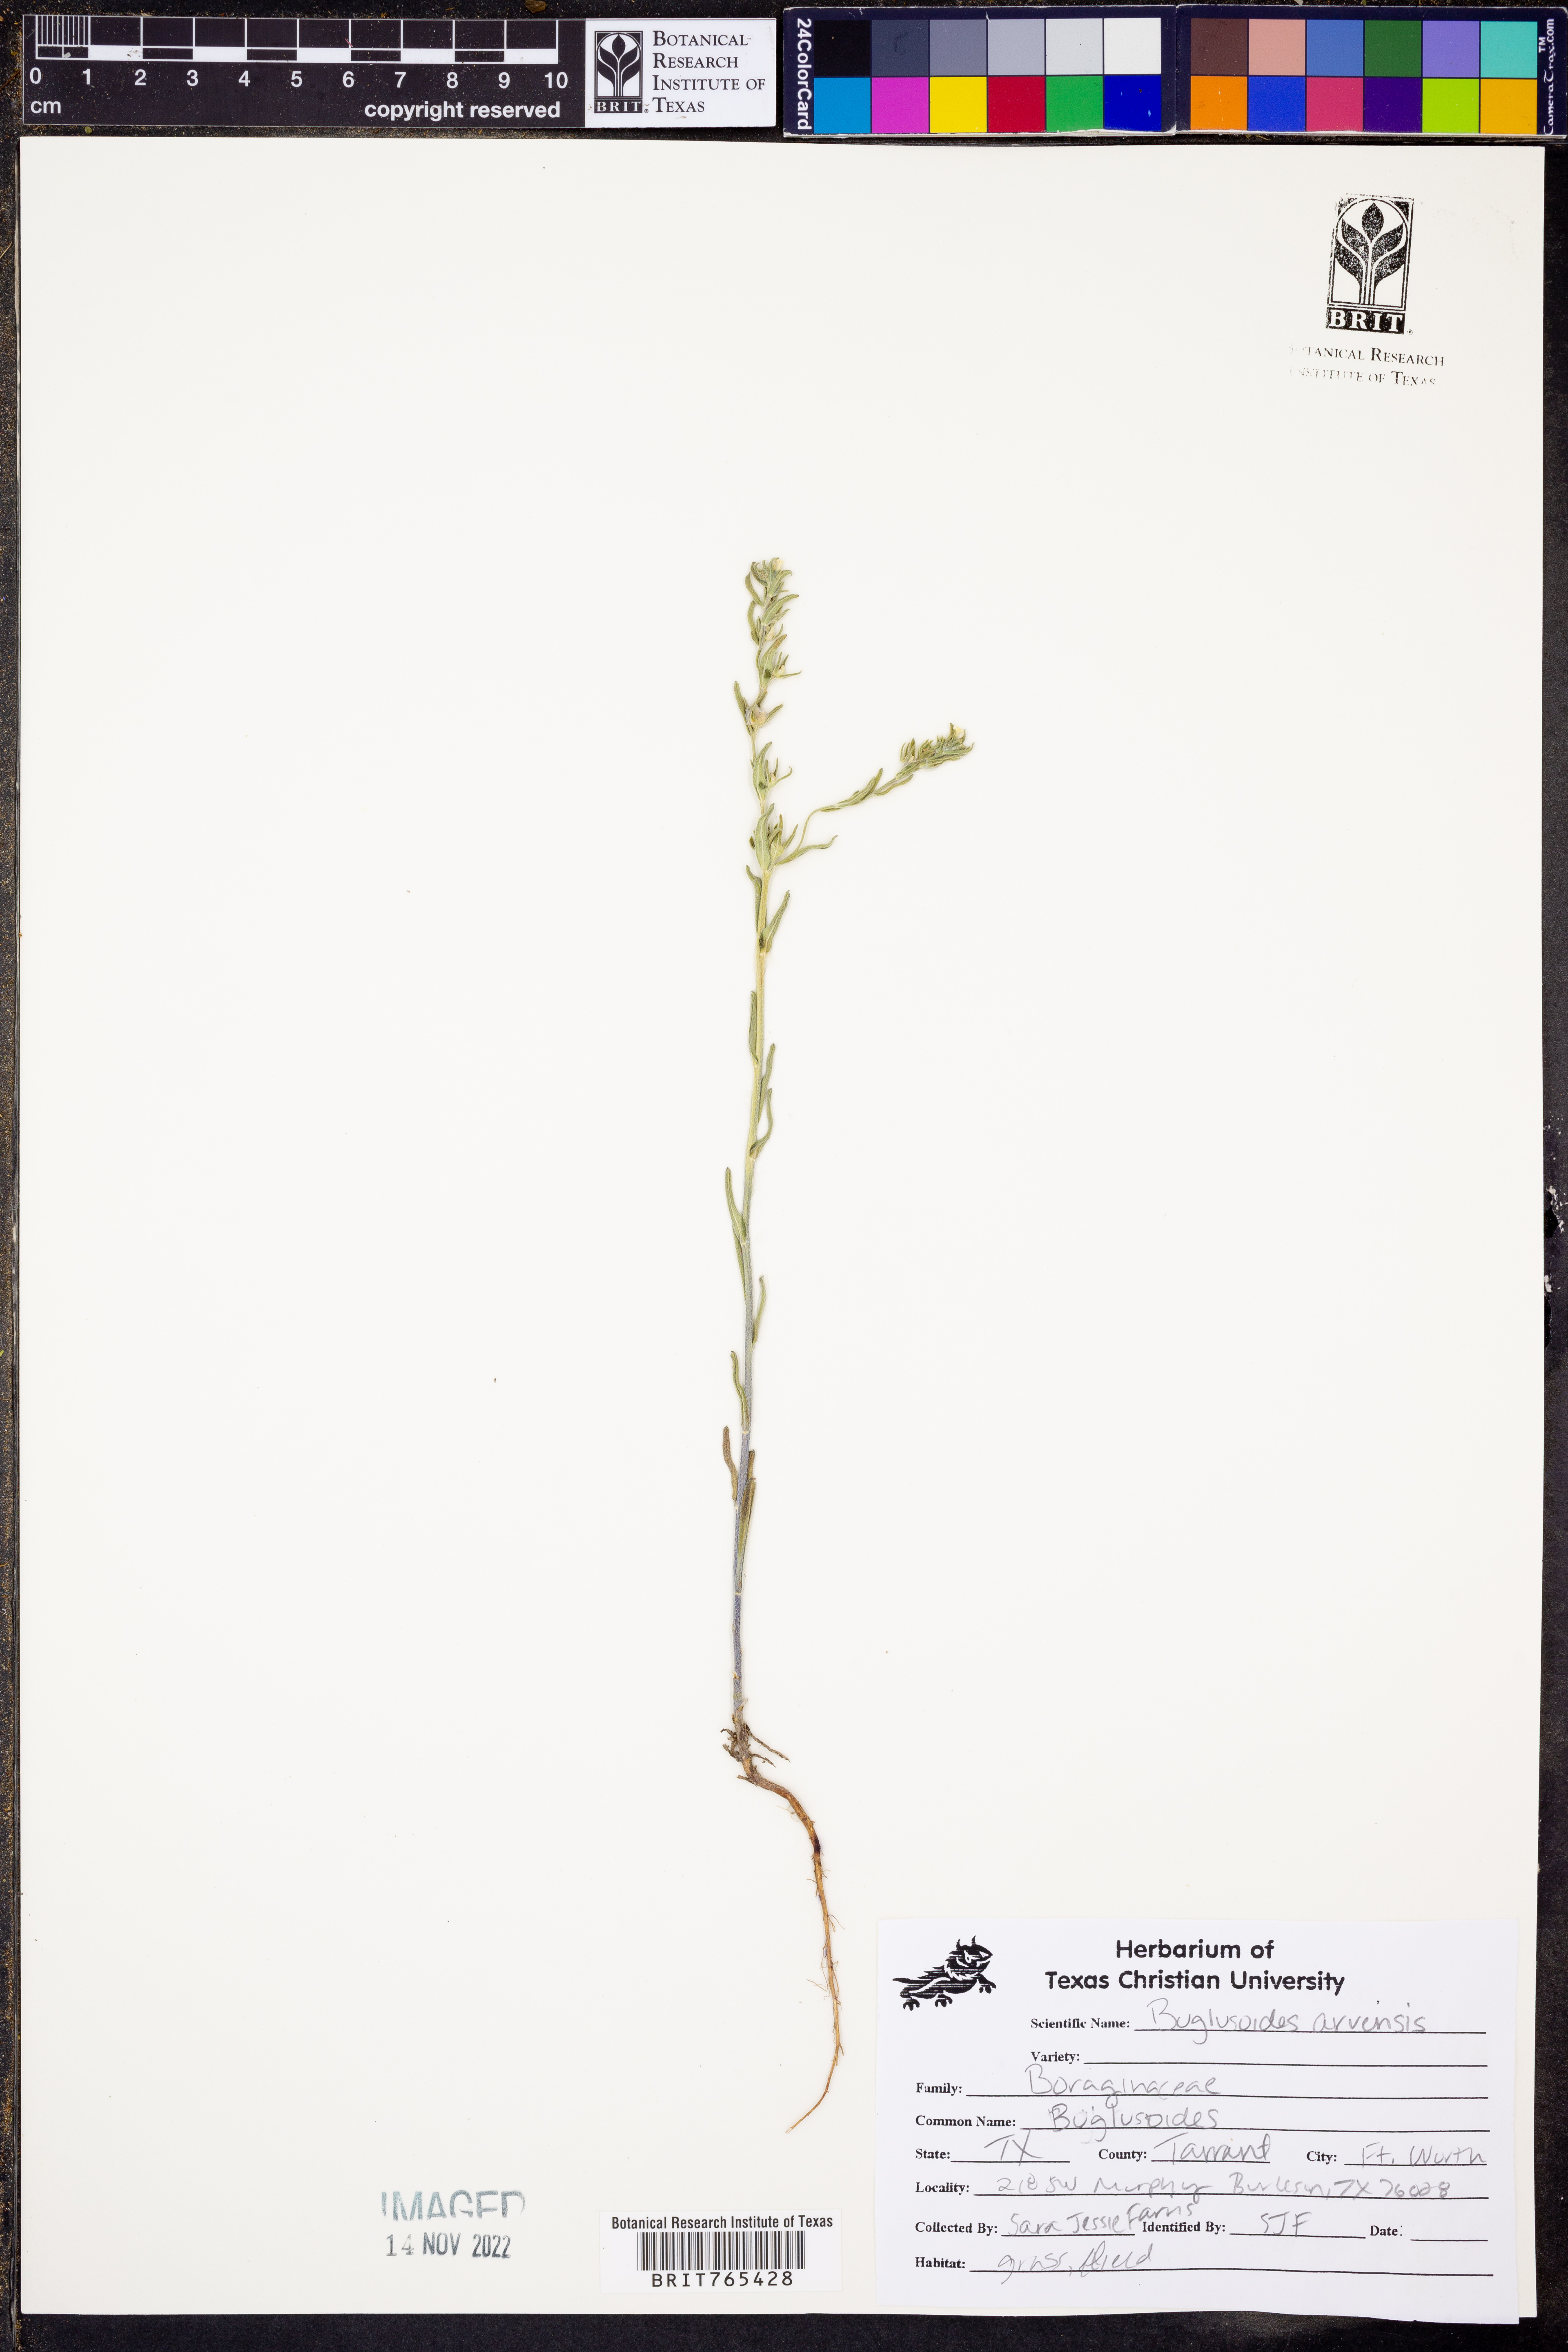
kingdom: Plantae
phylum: Tracheophyta
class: Magnoliopsida
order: Boraginales
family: Boraginaceae
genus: Buglossoides
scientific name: Buglossoides arvensis
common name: Corn gromwell
